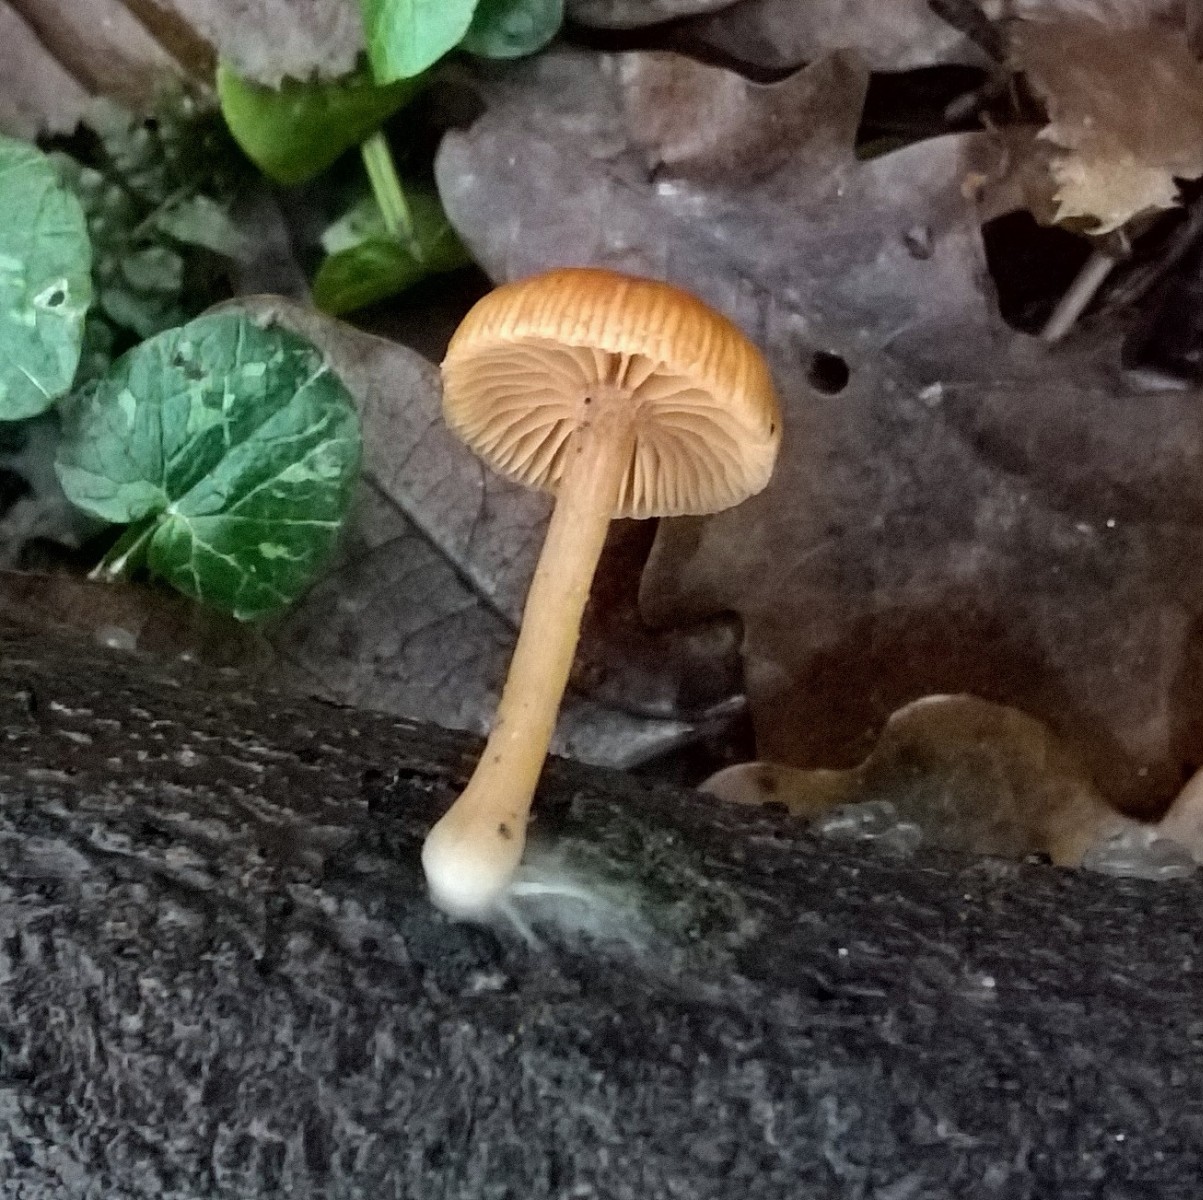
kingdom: Fungi
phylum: Basidiomycota
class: Agaricomycetes
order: Agaricales
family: Tubariaceae
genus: Tubaria
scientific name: Tubaria furfuracea
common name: kliddet fnughat
